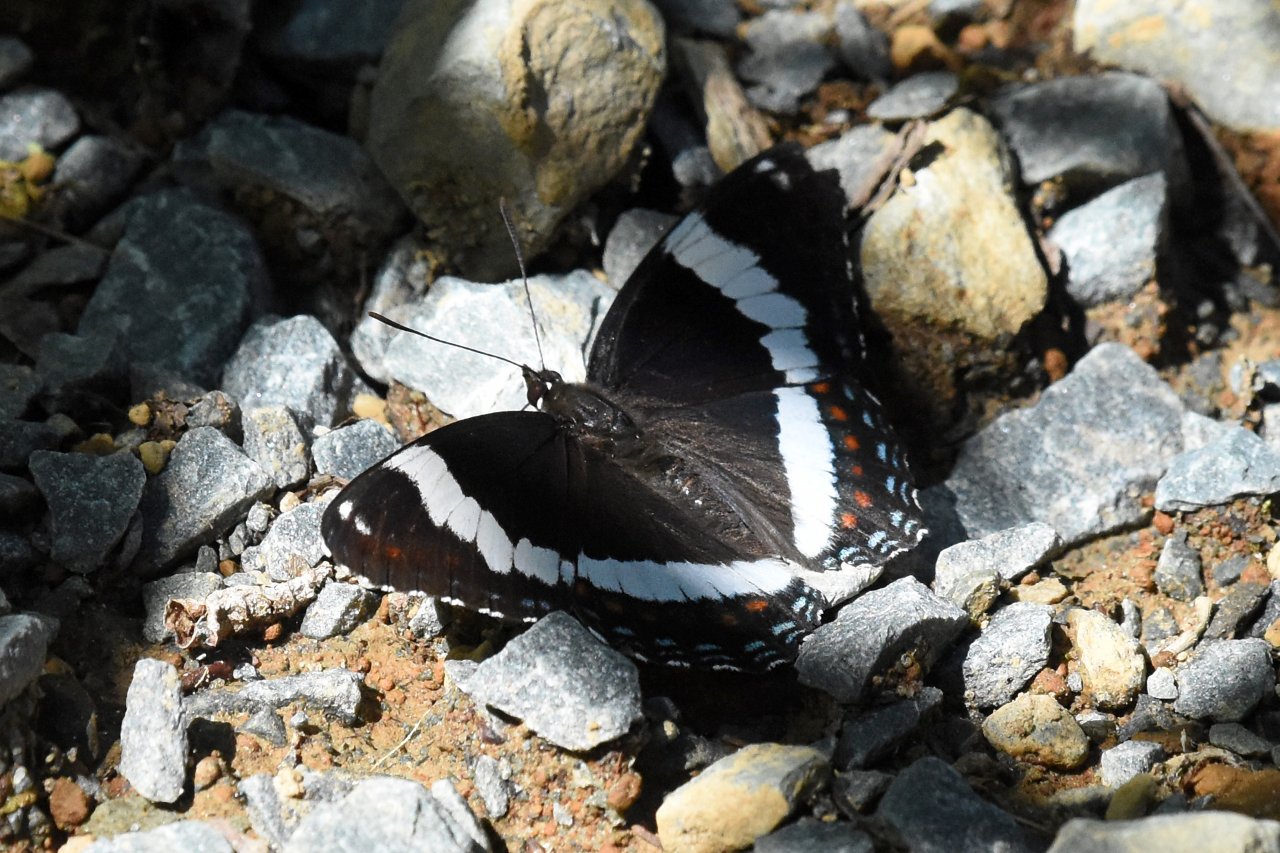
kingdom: Animalia
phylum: Arthropoda
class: Insecta
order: Lepidoptera
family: Nymphalidae
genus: Limenitis
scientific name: Limenitis arthemis
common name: Red-spotted Admiral
